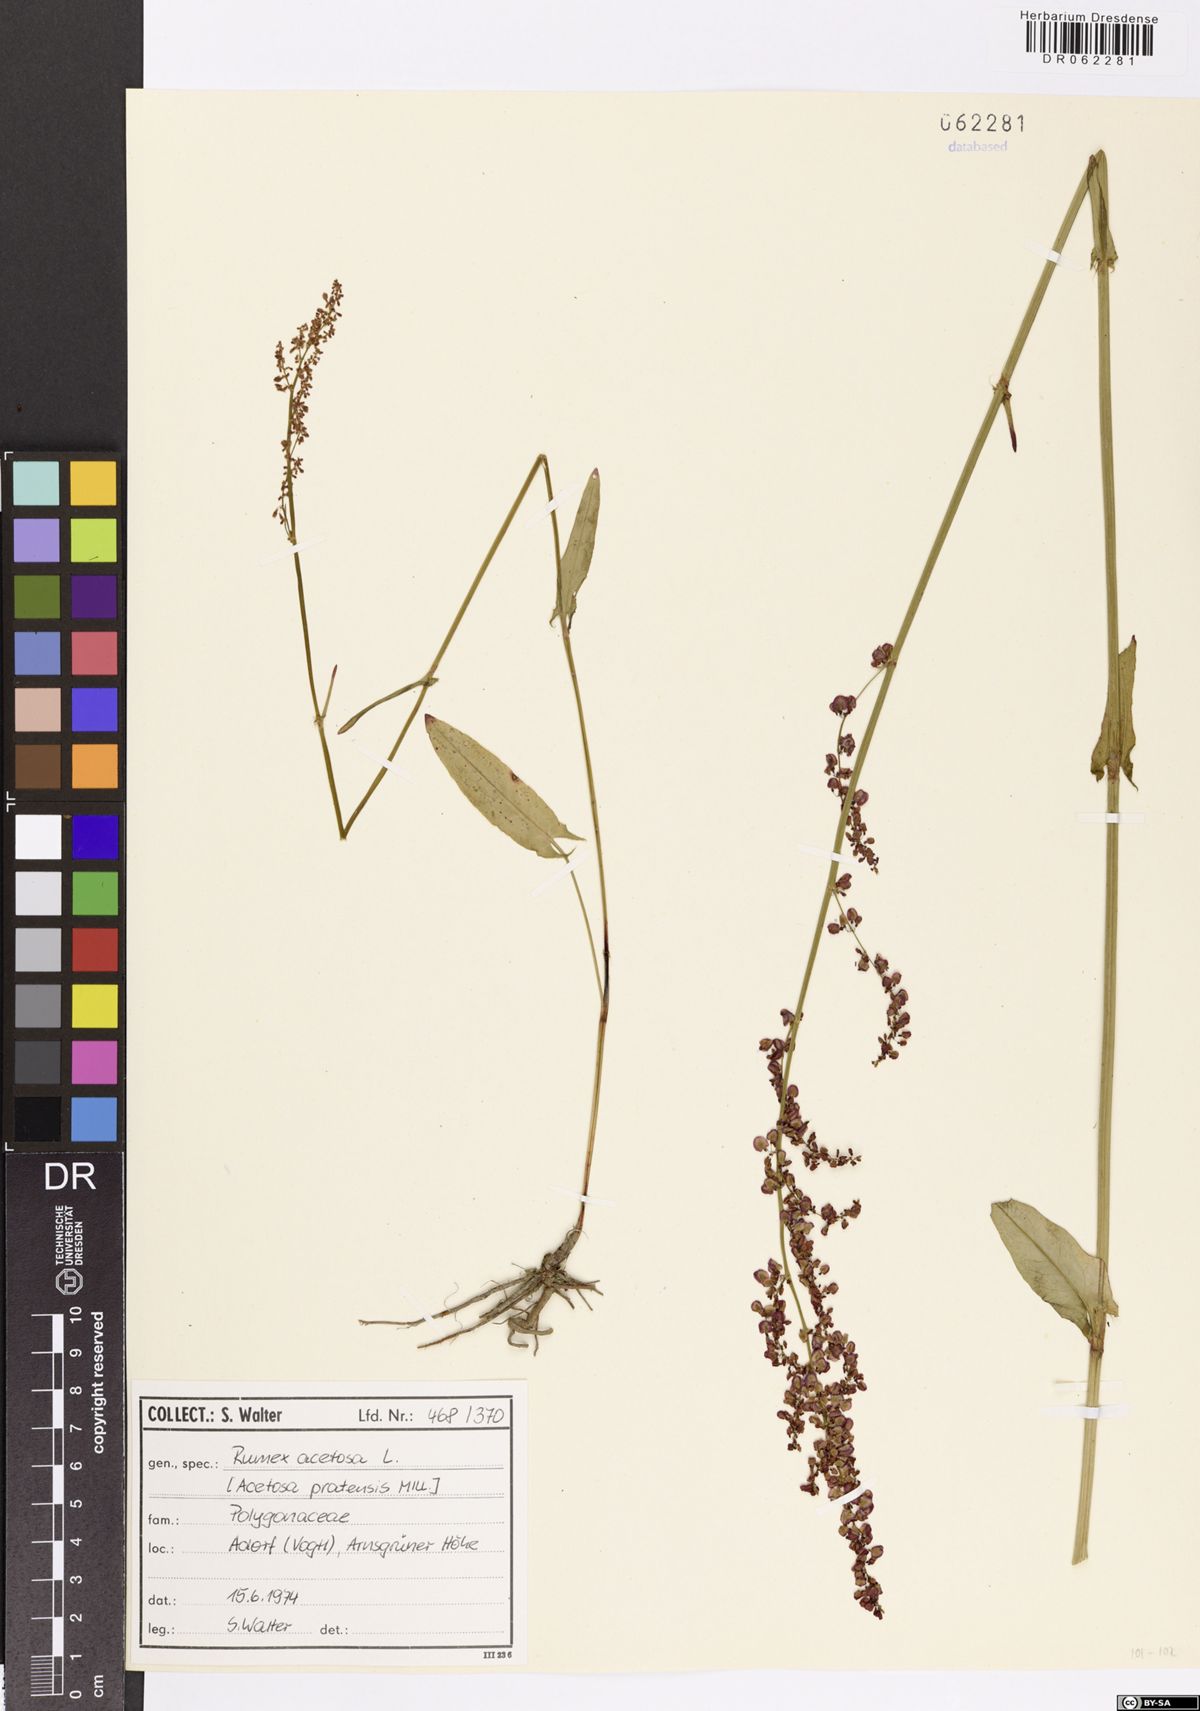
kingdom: Plantae
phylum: Tracheophyta
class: Magnoliopsida
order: Caryophyllales
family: Polygonaceae
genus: Rumex
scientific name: Rumex acetosa
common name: Garden sorrel
